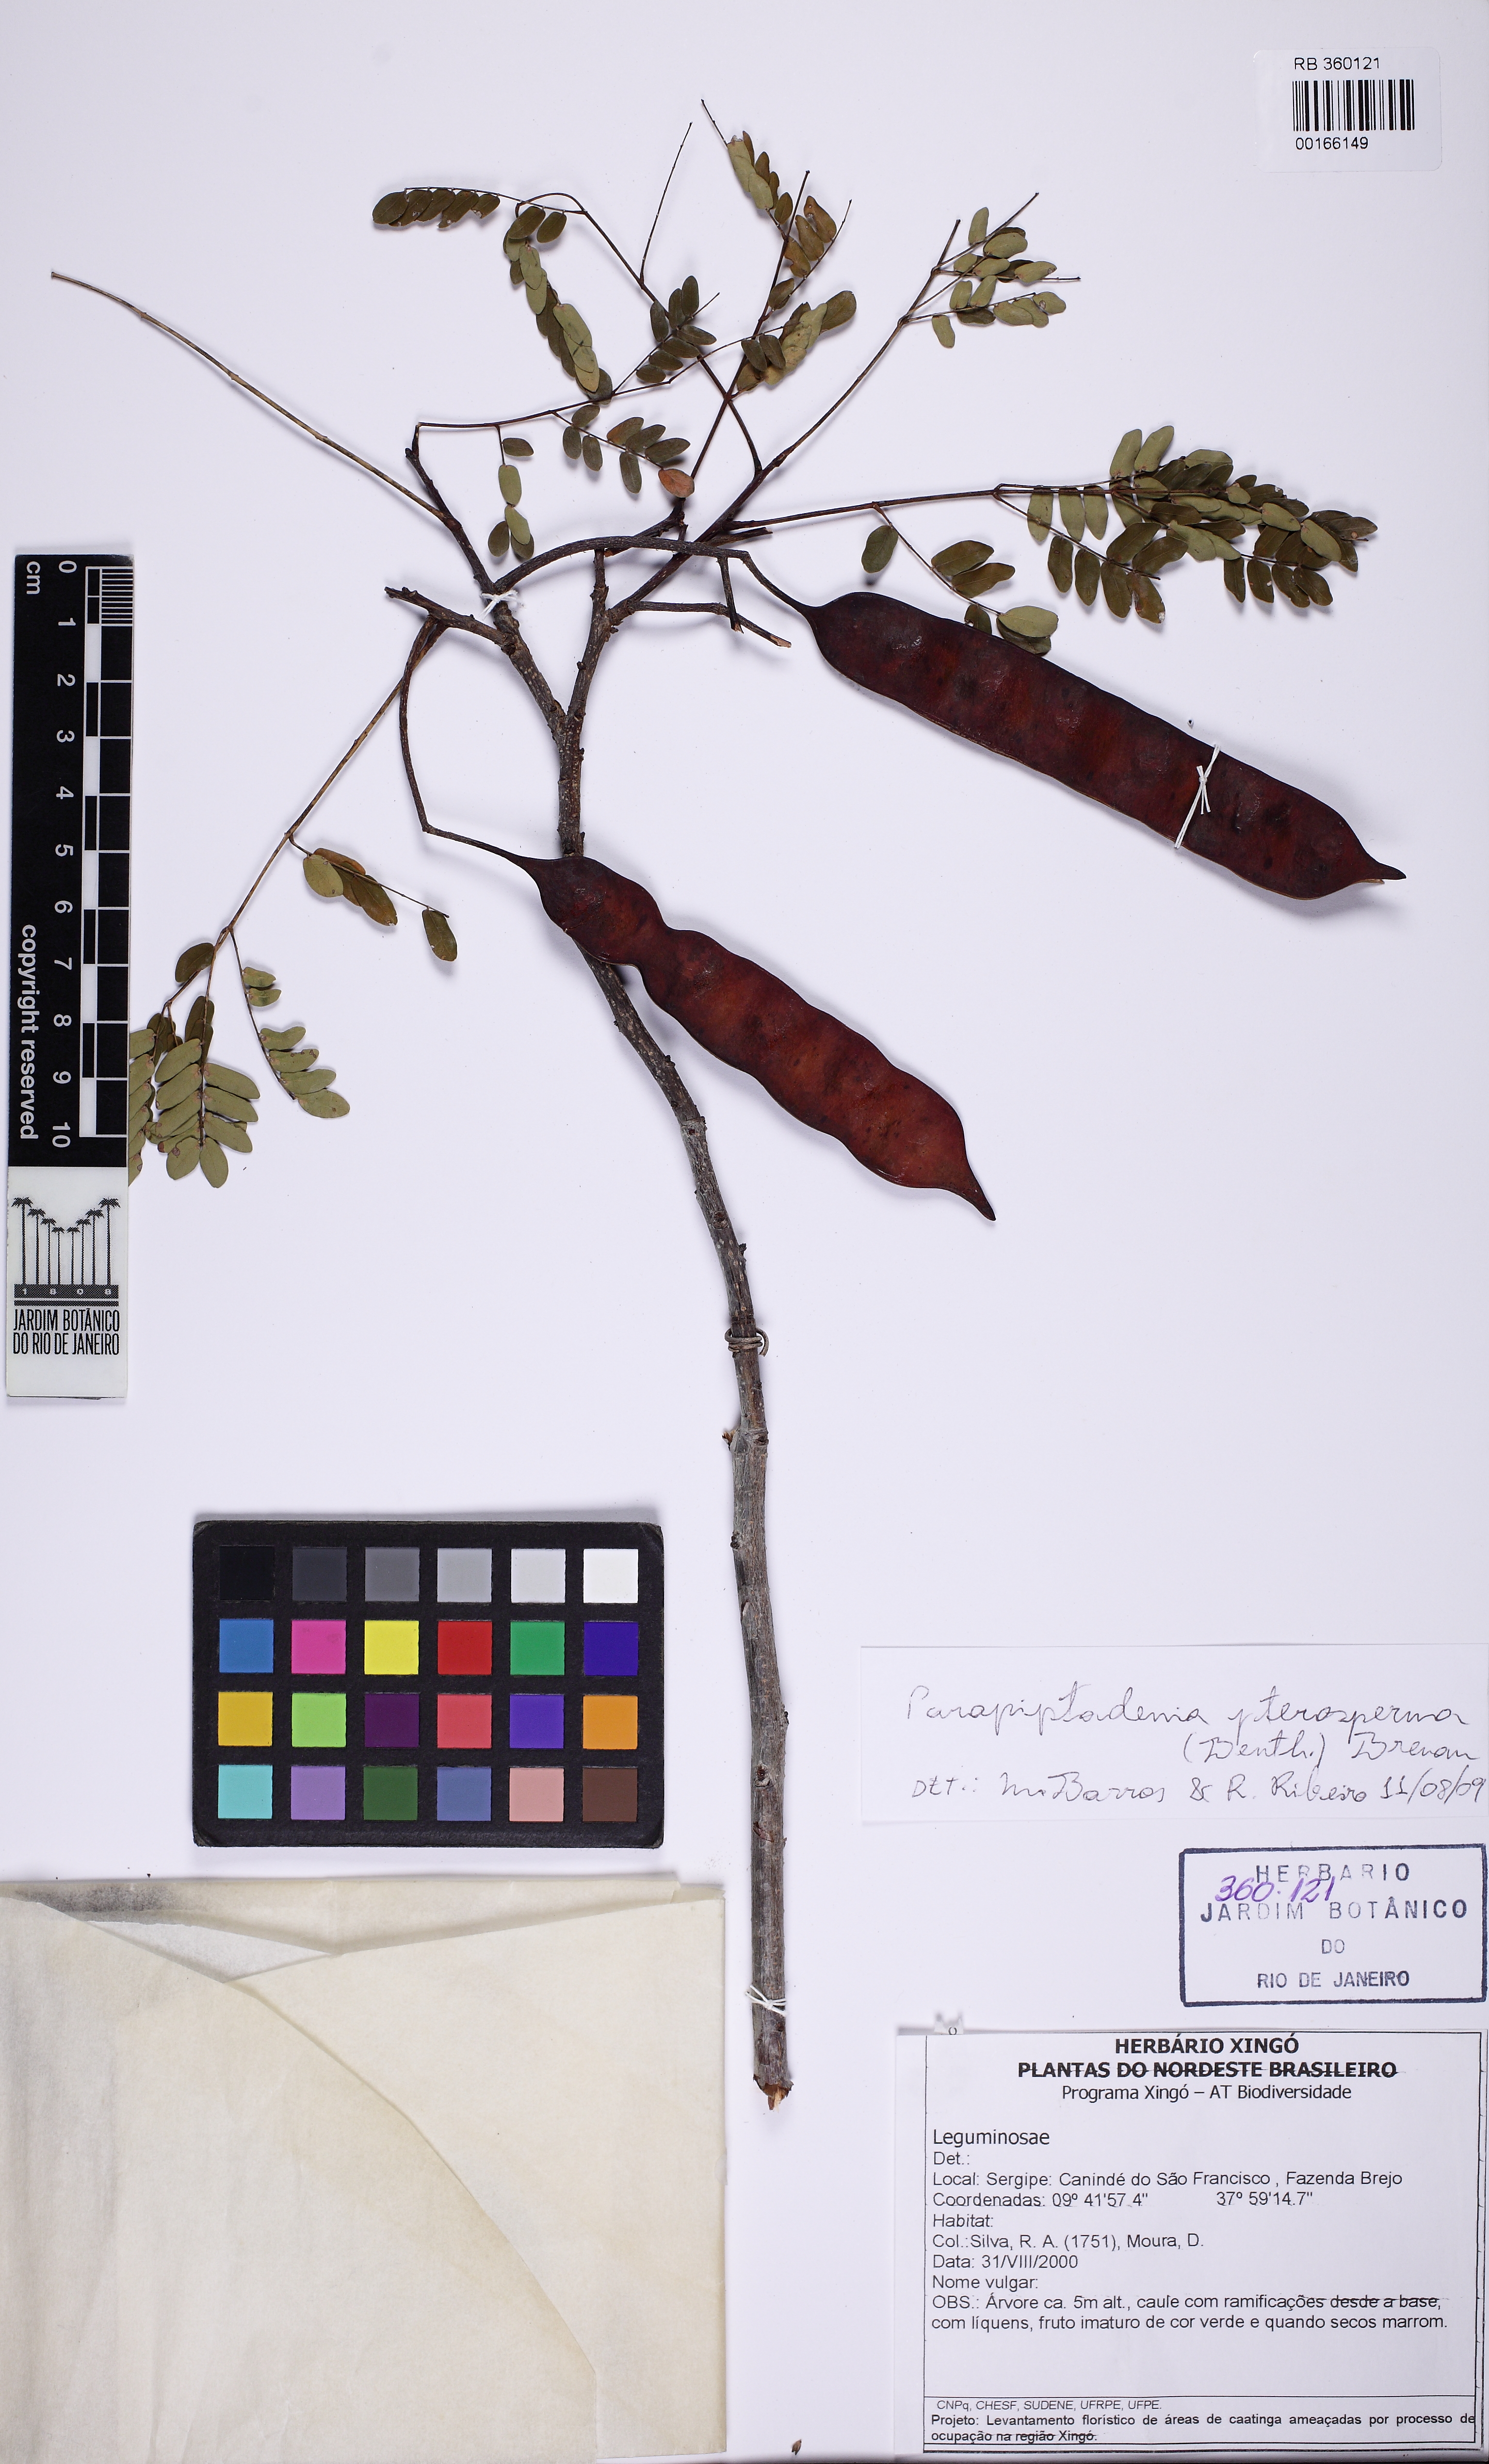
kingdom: Plantae
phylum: Tracheophyta
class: Magnoliopsida
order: Fabales
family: Fabaceae
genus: Pseudopiptadenia
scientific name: Pseudopiptadenia
